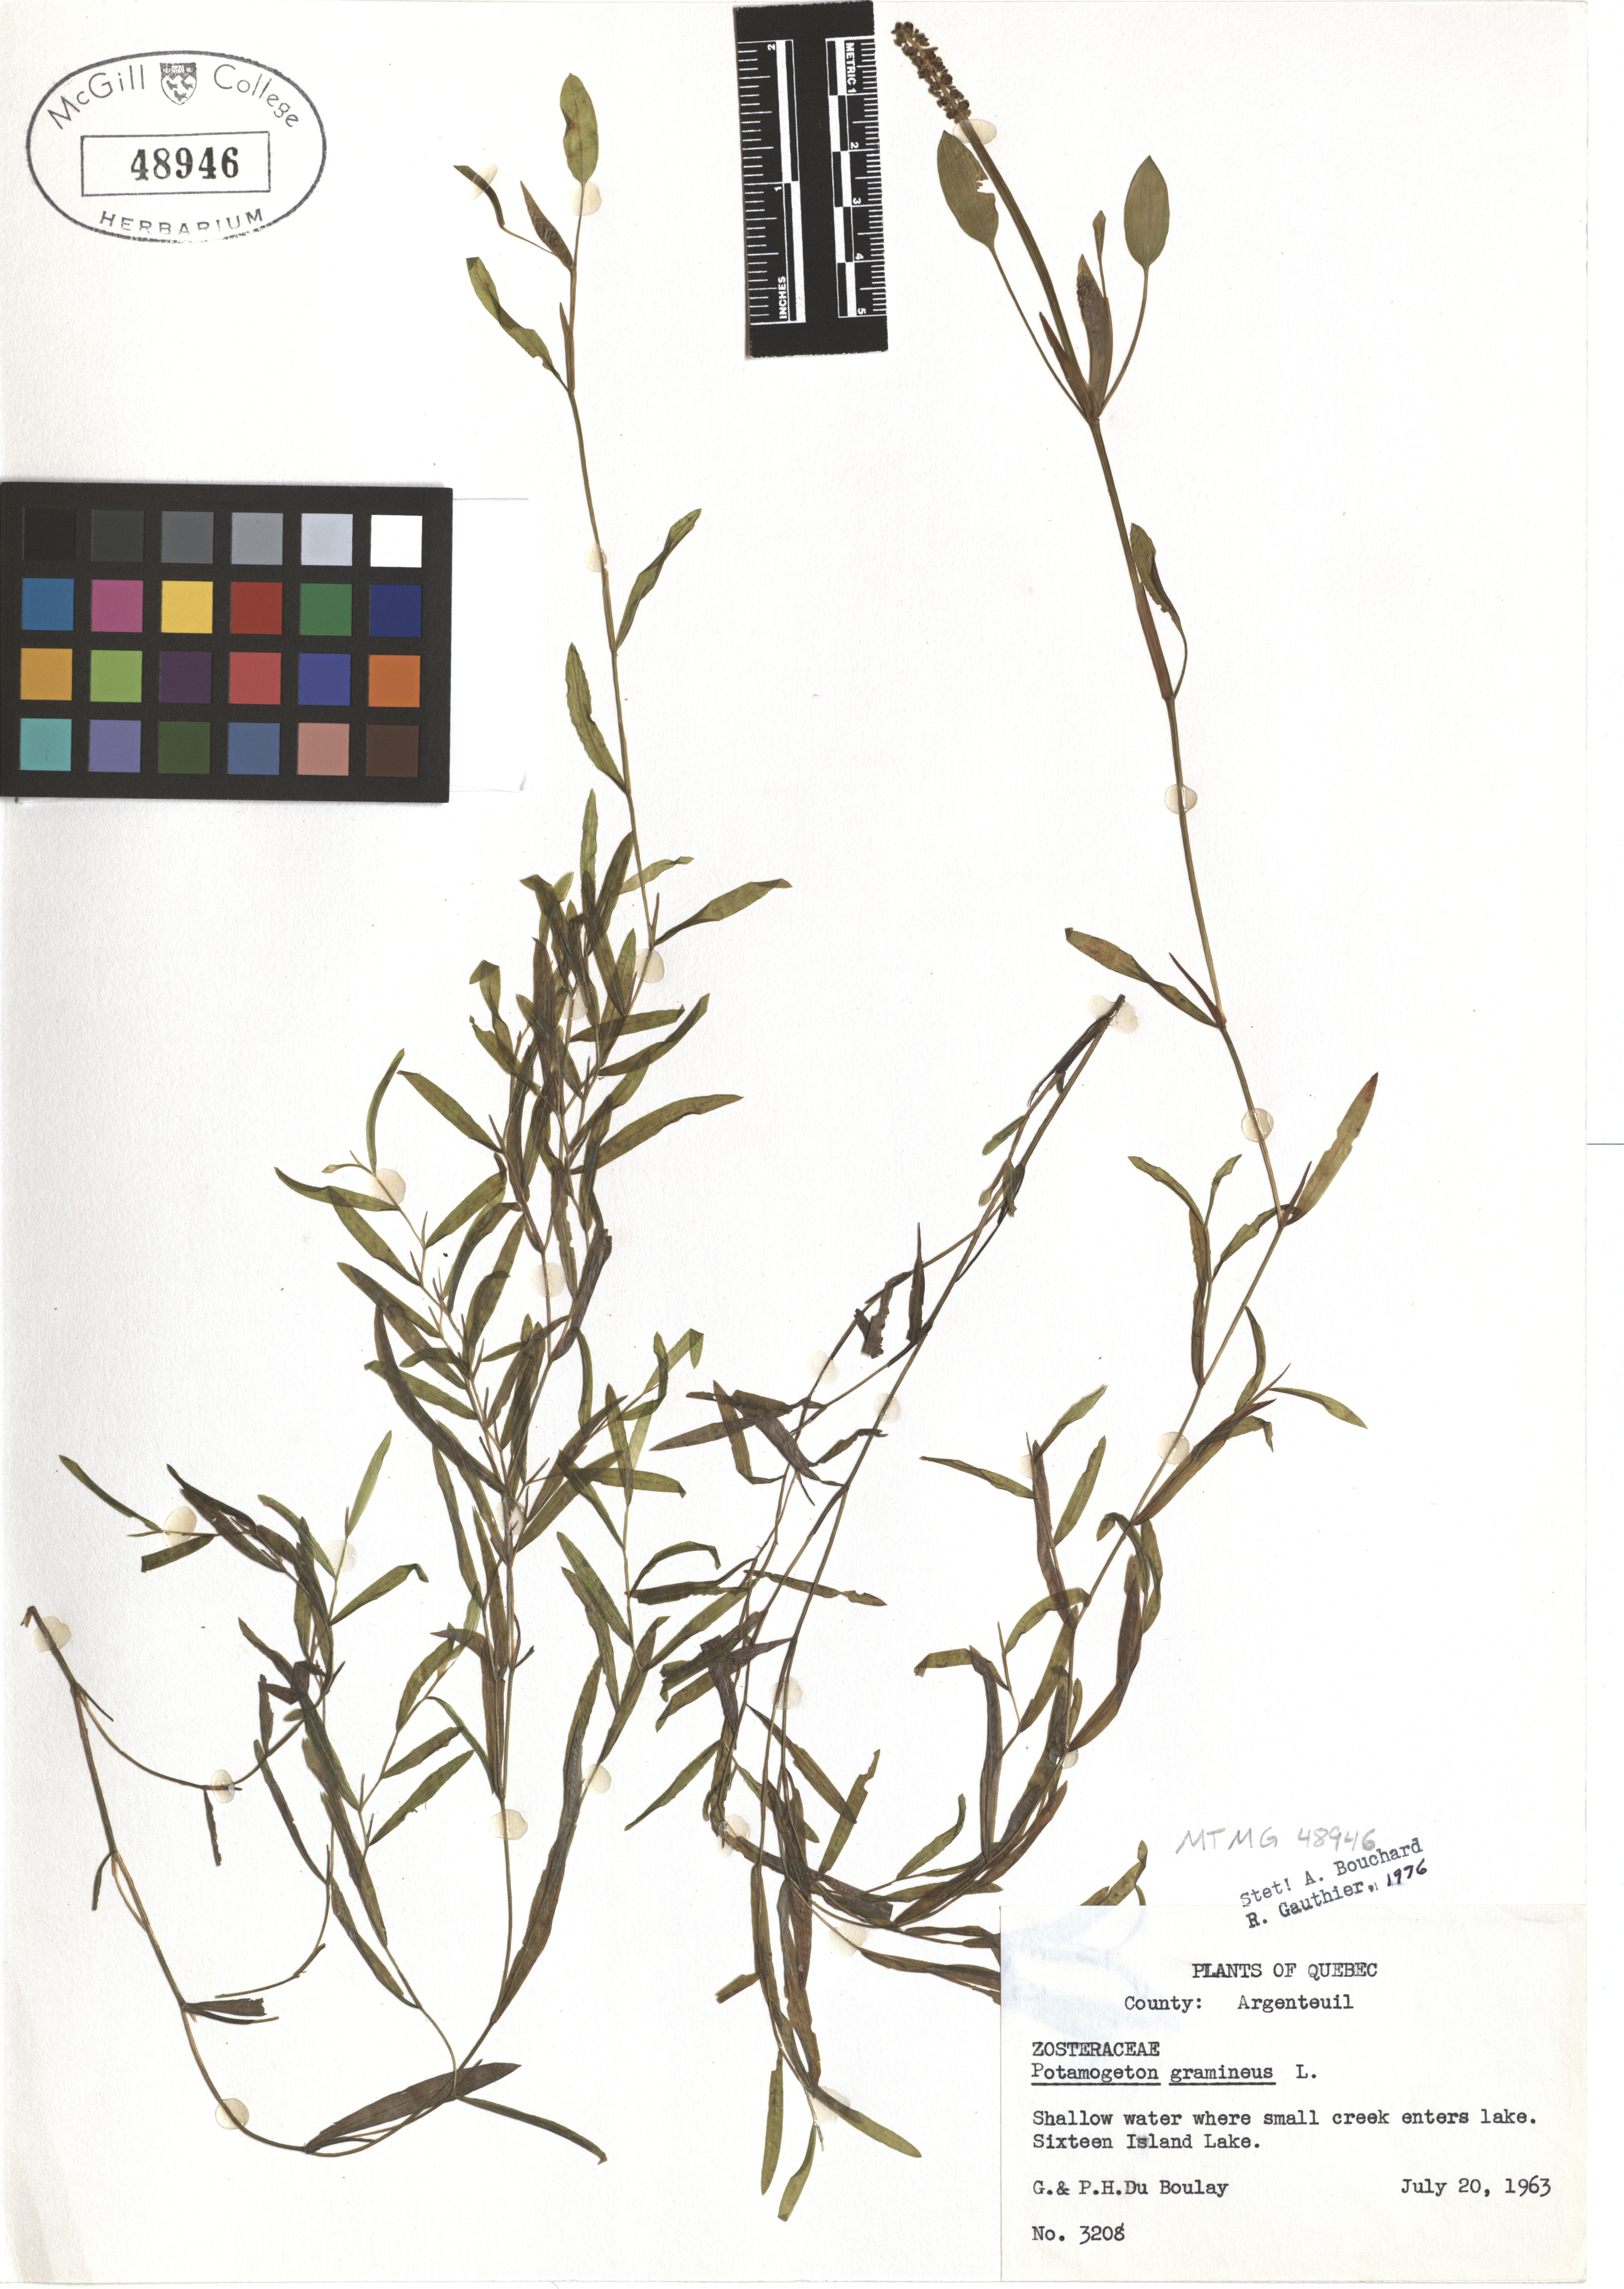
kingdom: Plantae
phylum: Tracheophyta
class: Liliopsida
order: Alismatales
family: Potamogetonaceae
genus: Potamogeton
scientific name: Potamogeton gramineus
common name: Various-leaved pondweed
